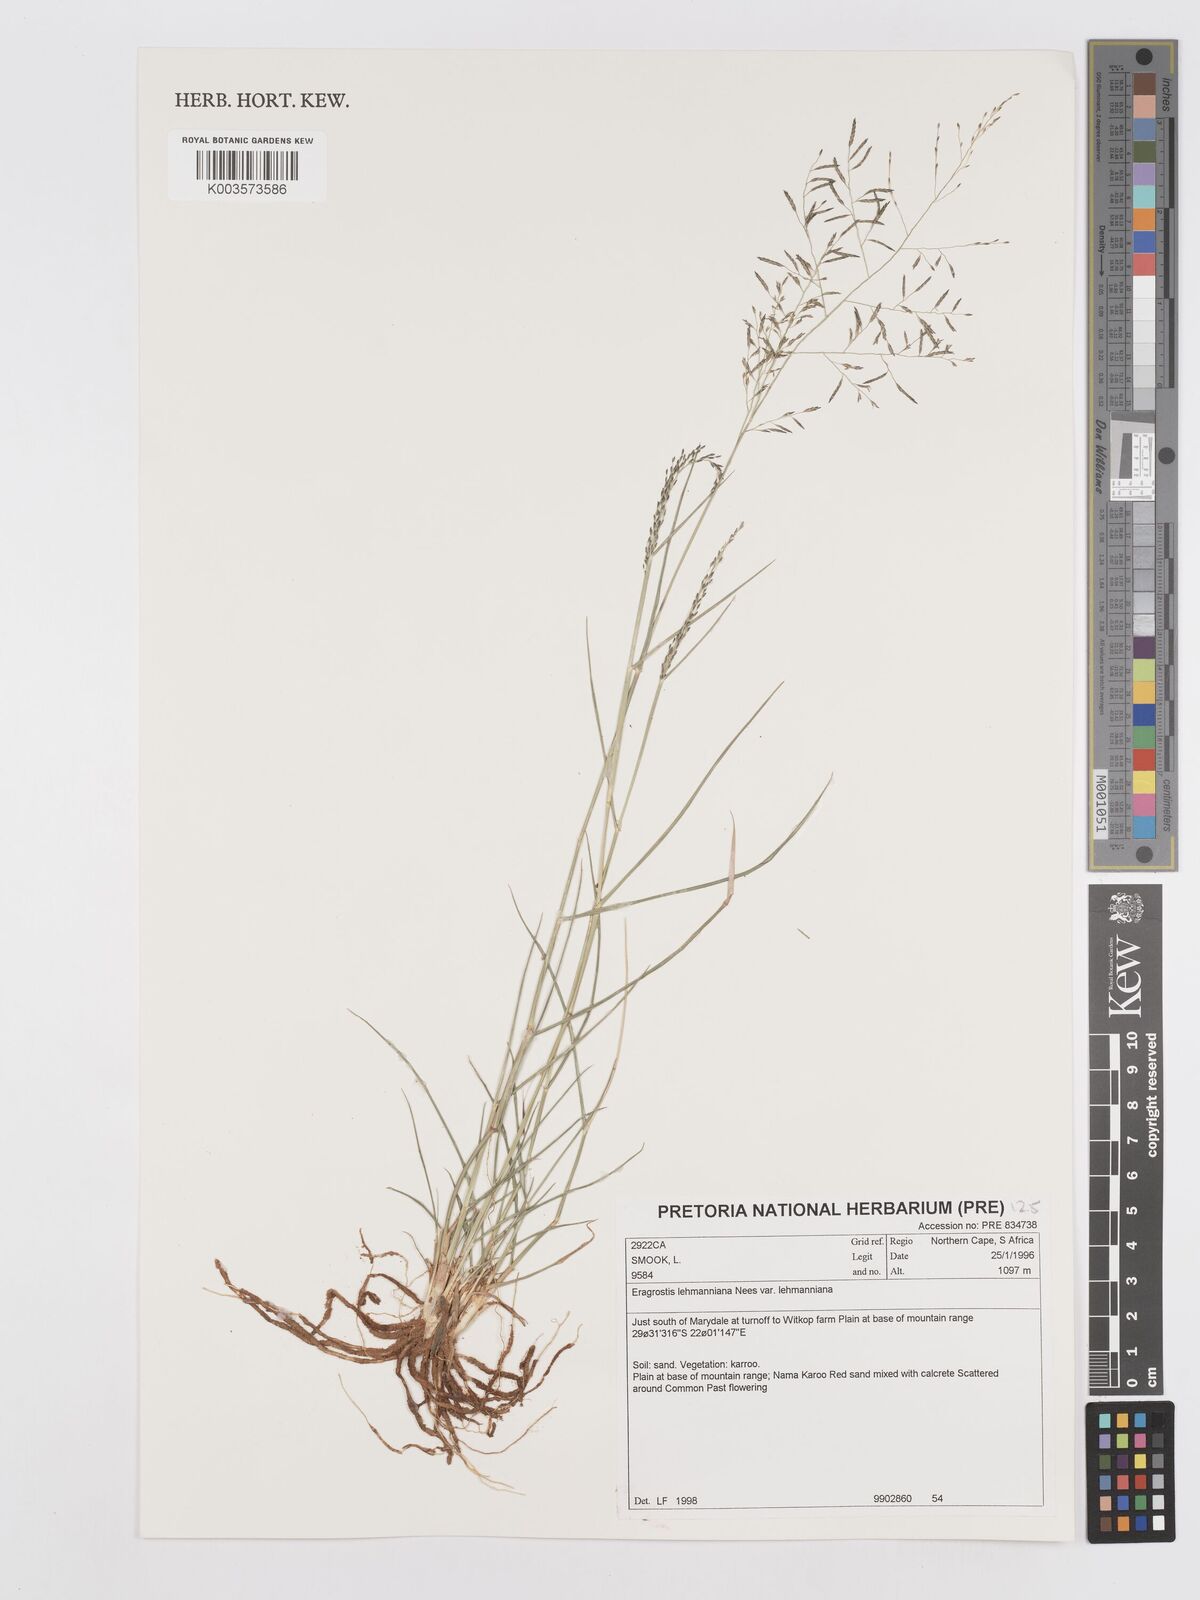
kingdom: Plantae
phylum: Tracheophyta
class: Liliopsida
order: Poales
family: Poaceae
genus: Eragrostis
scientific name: Eragrostis lehmanniana
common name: Lehmann lovegrass
